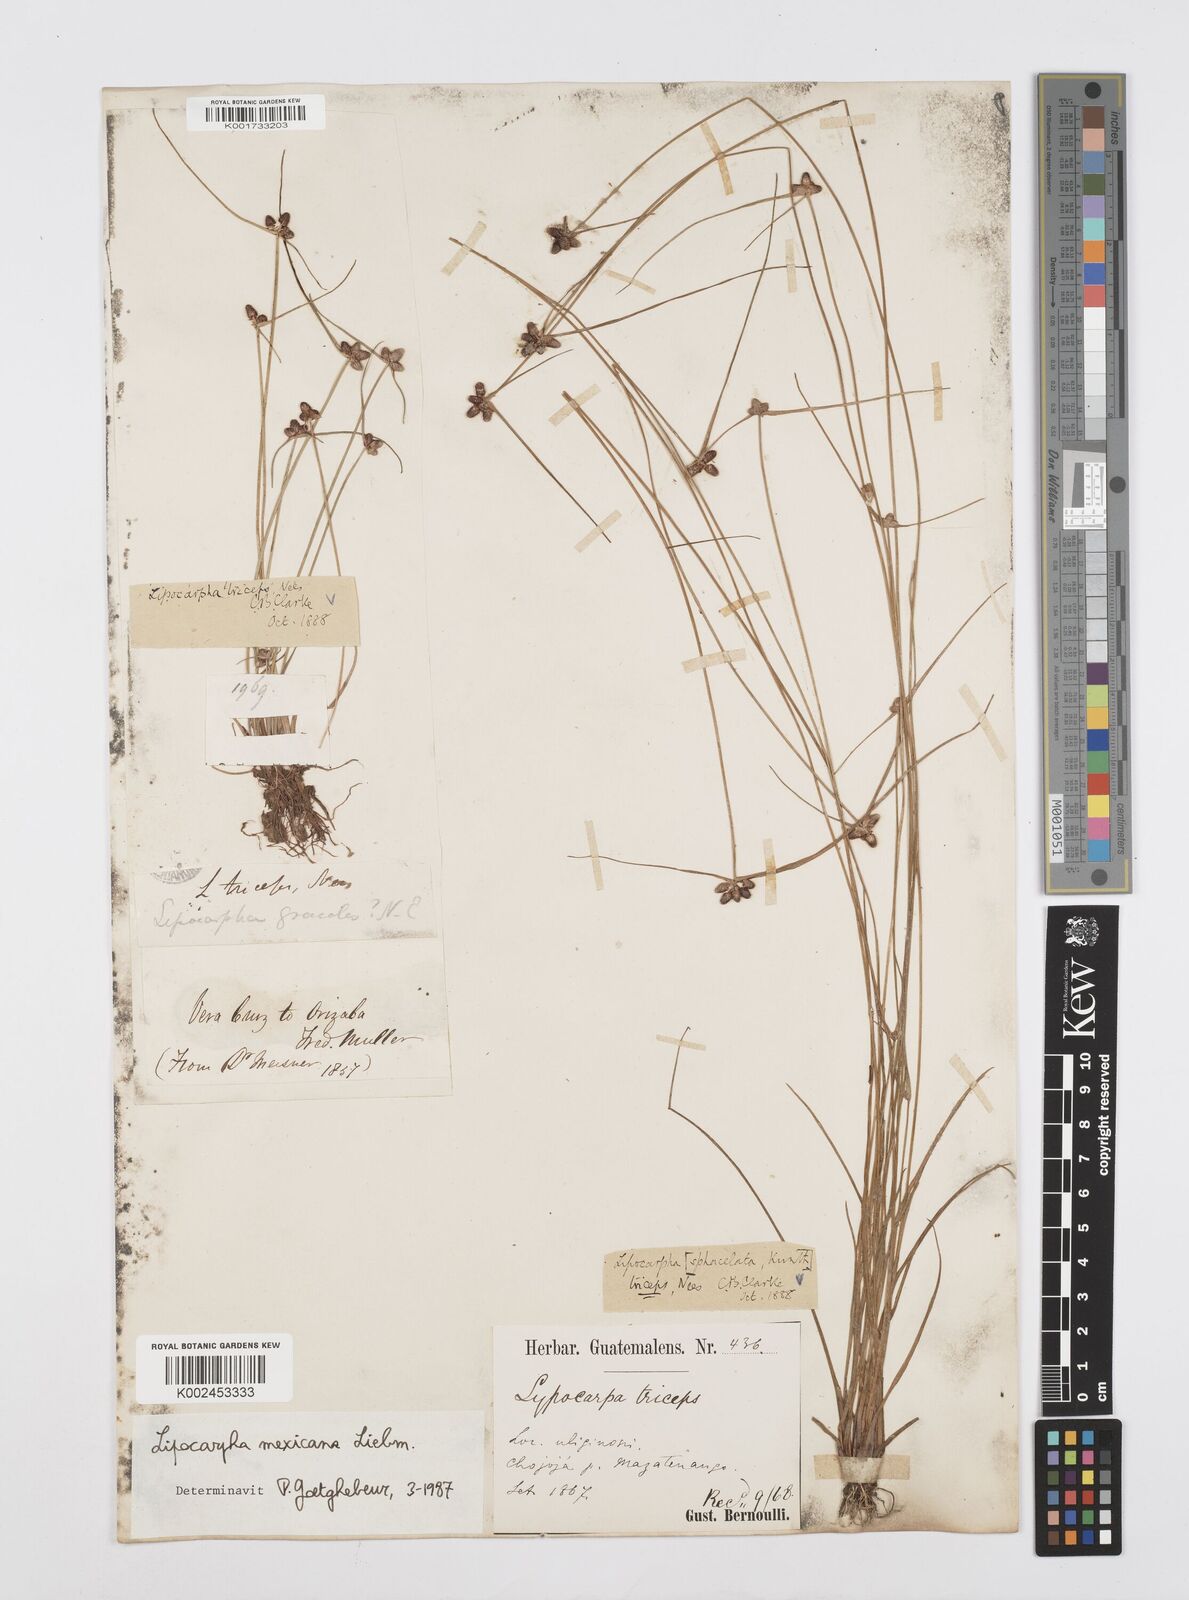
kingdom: Plantae
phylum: Tracheophyta
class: Liliopsida
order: Poales
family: Cyperaceae
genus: Cyperus
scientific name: Cyperus digitatus
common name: Finger flatsedge
